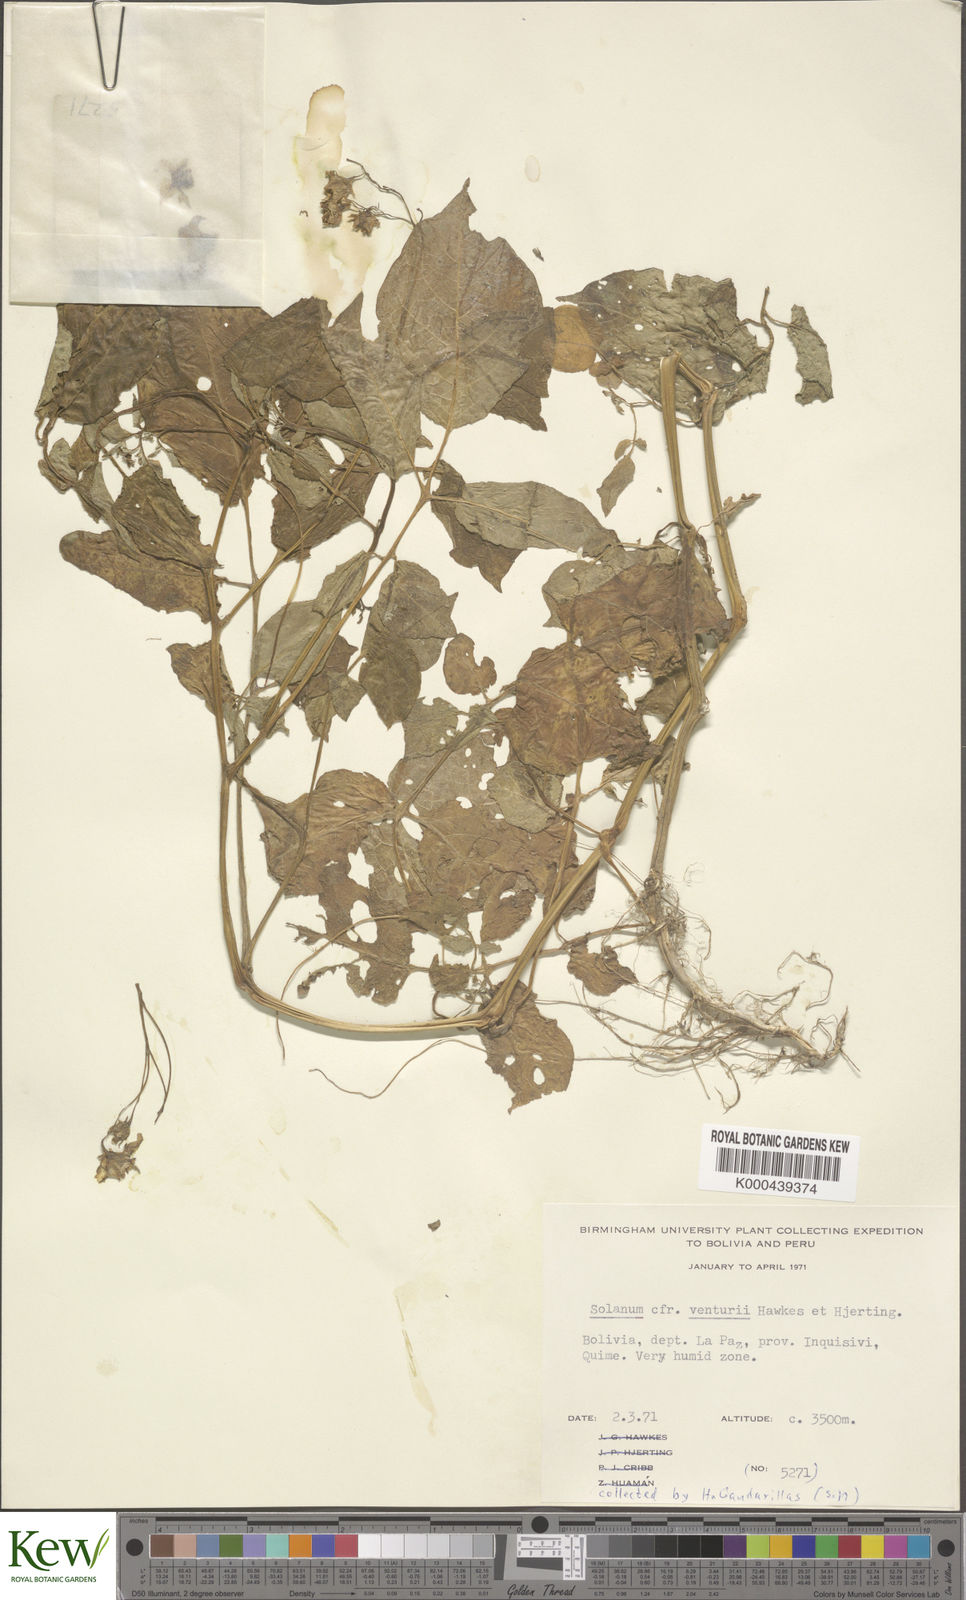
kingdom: Plantae
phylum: Tracheophyta
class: Magnoliopsida
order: Solanales
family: Solanaceae
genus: Solanum
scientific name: Solanum venturii
